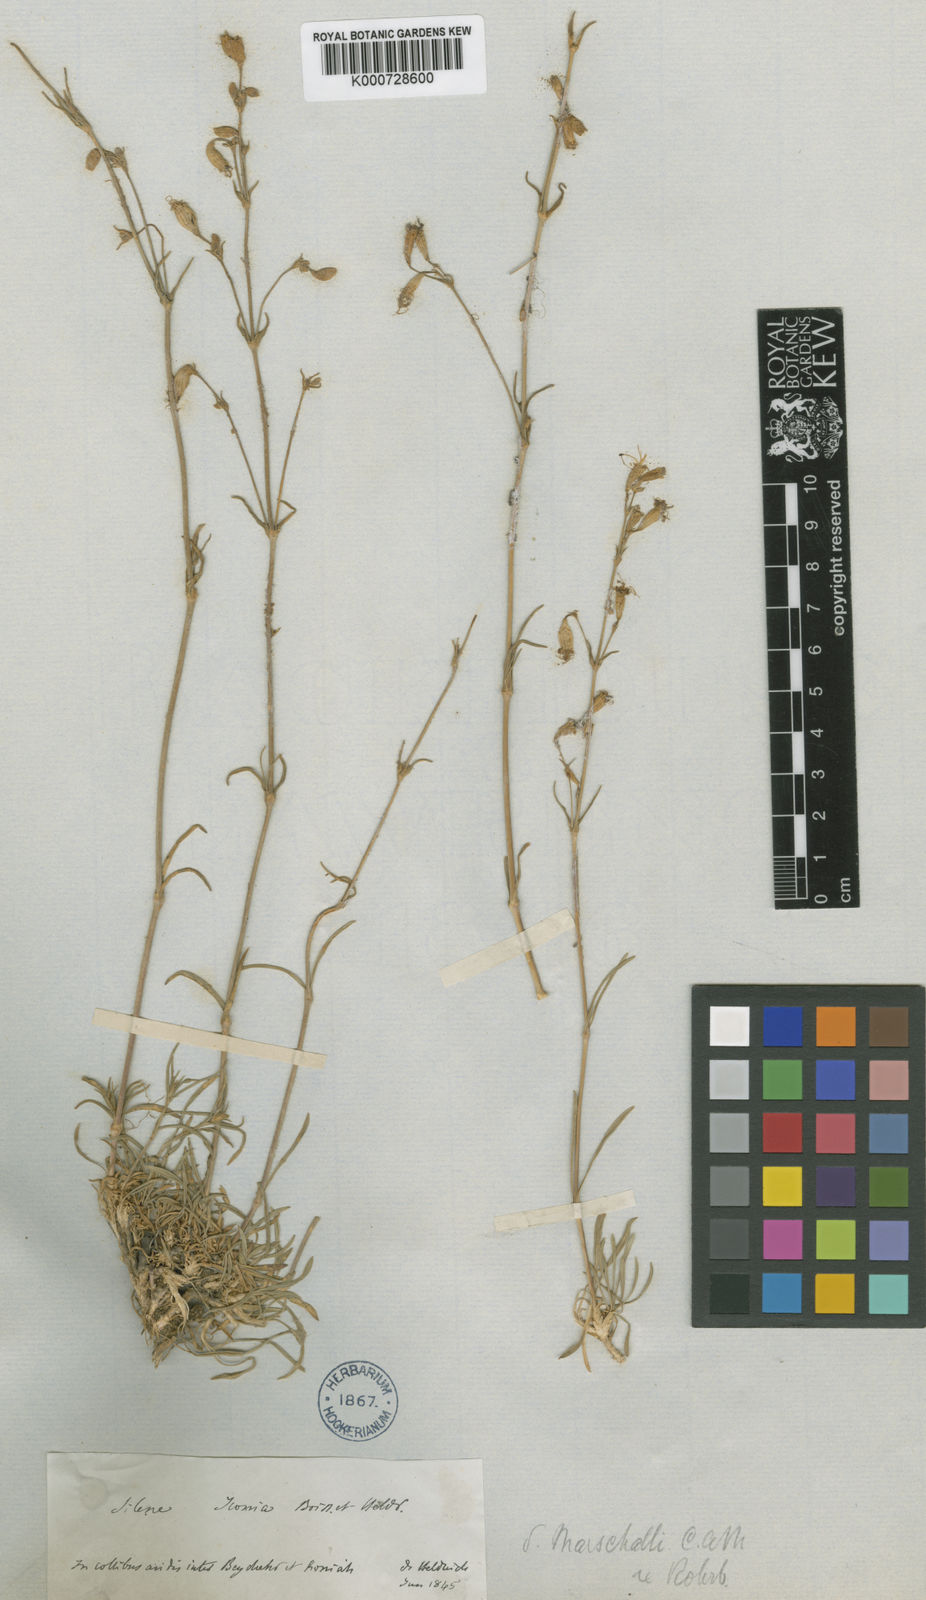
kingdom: Plantae
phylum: Tracheophyta
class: Magnoliopsida
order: Caryophyllales
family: Caryophyllaceae
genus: Silene
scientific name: Silene
